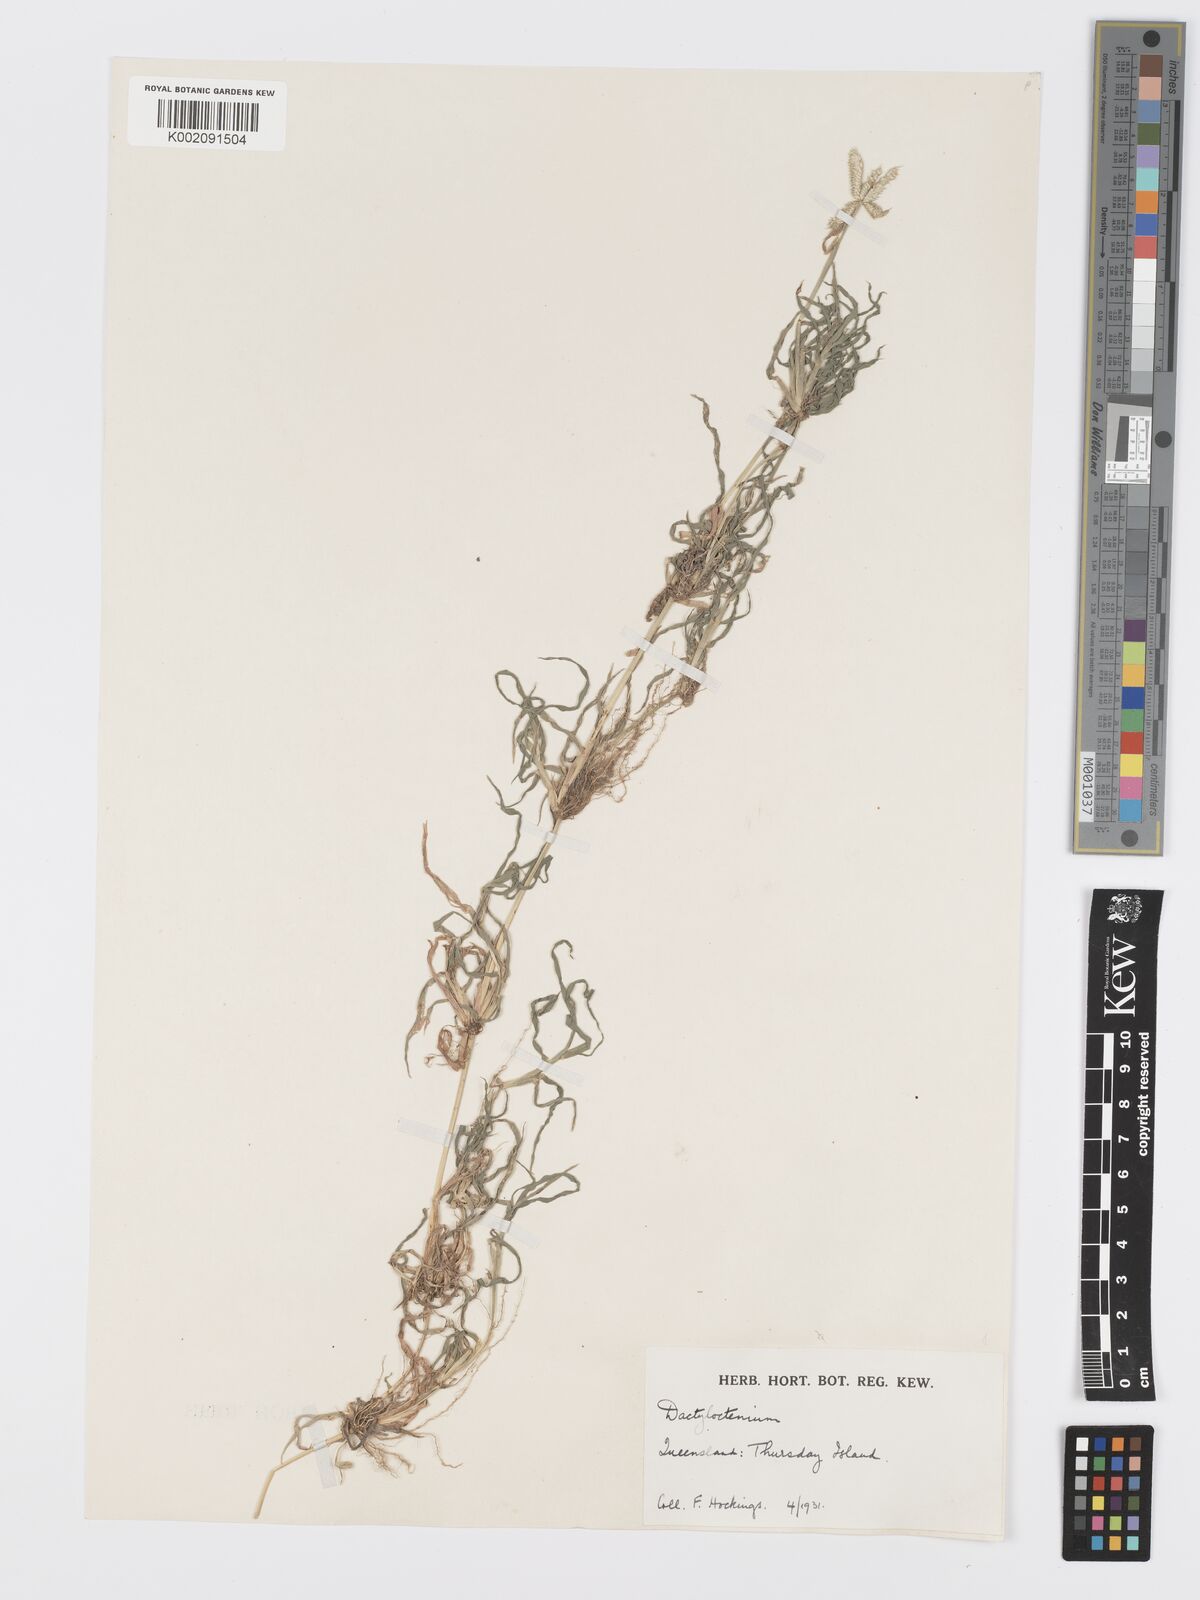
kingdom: Plantae
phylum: Tracheophyta
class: Liliopsida
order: Poales
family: Poaceae
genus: Dactyloctenium
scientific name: Dactyloctenium aegyptium
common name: Egyptian grass
